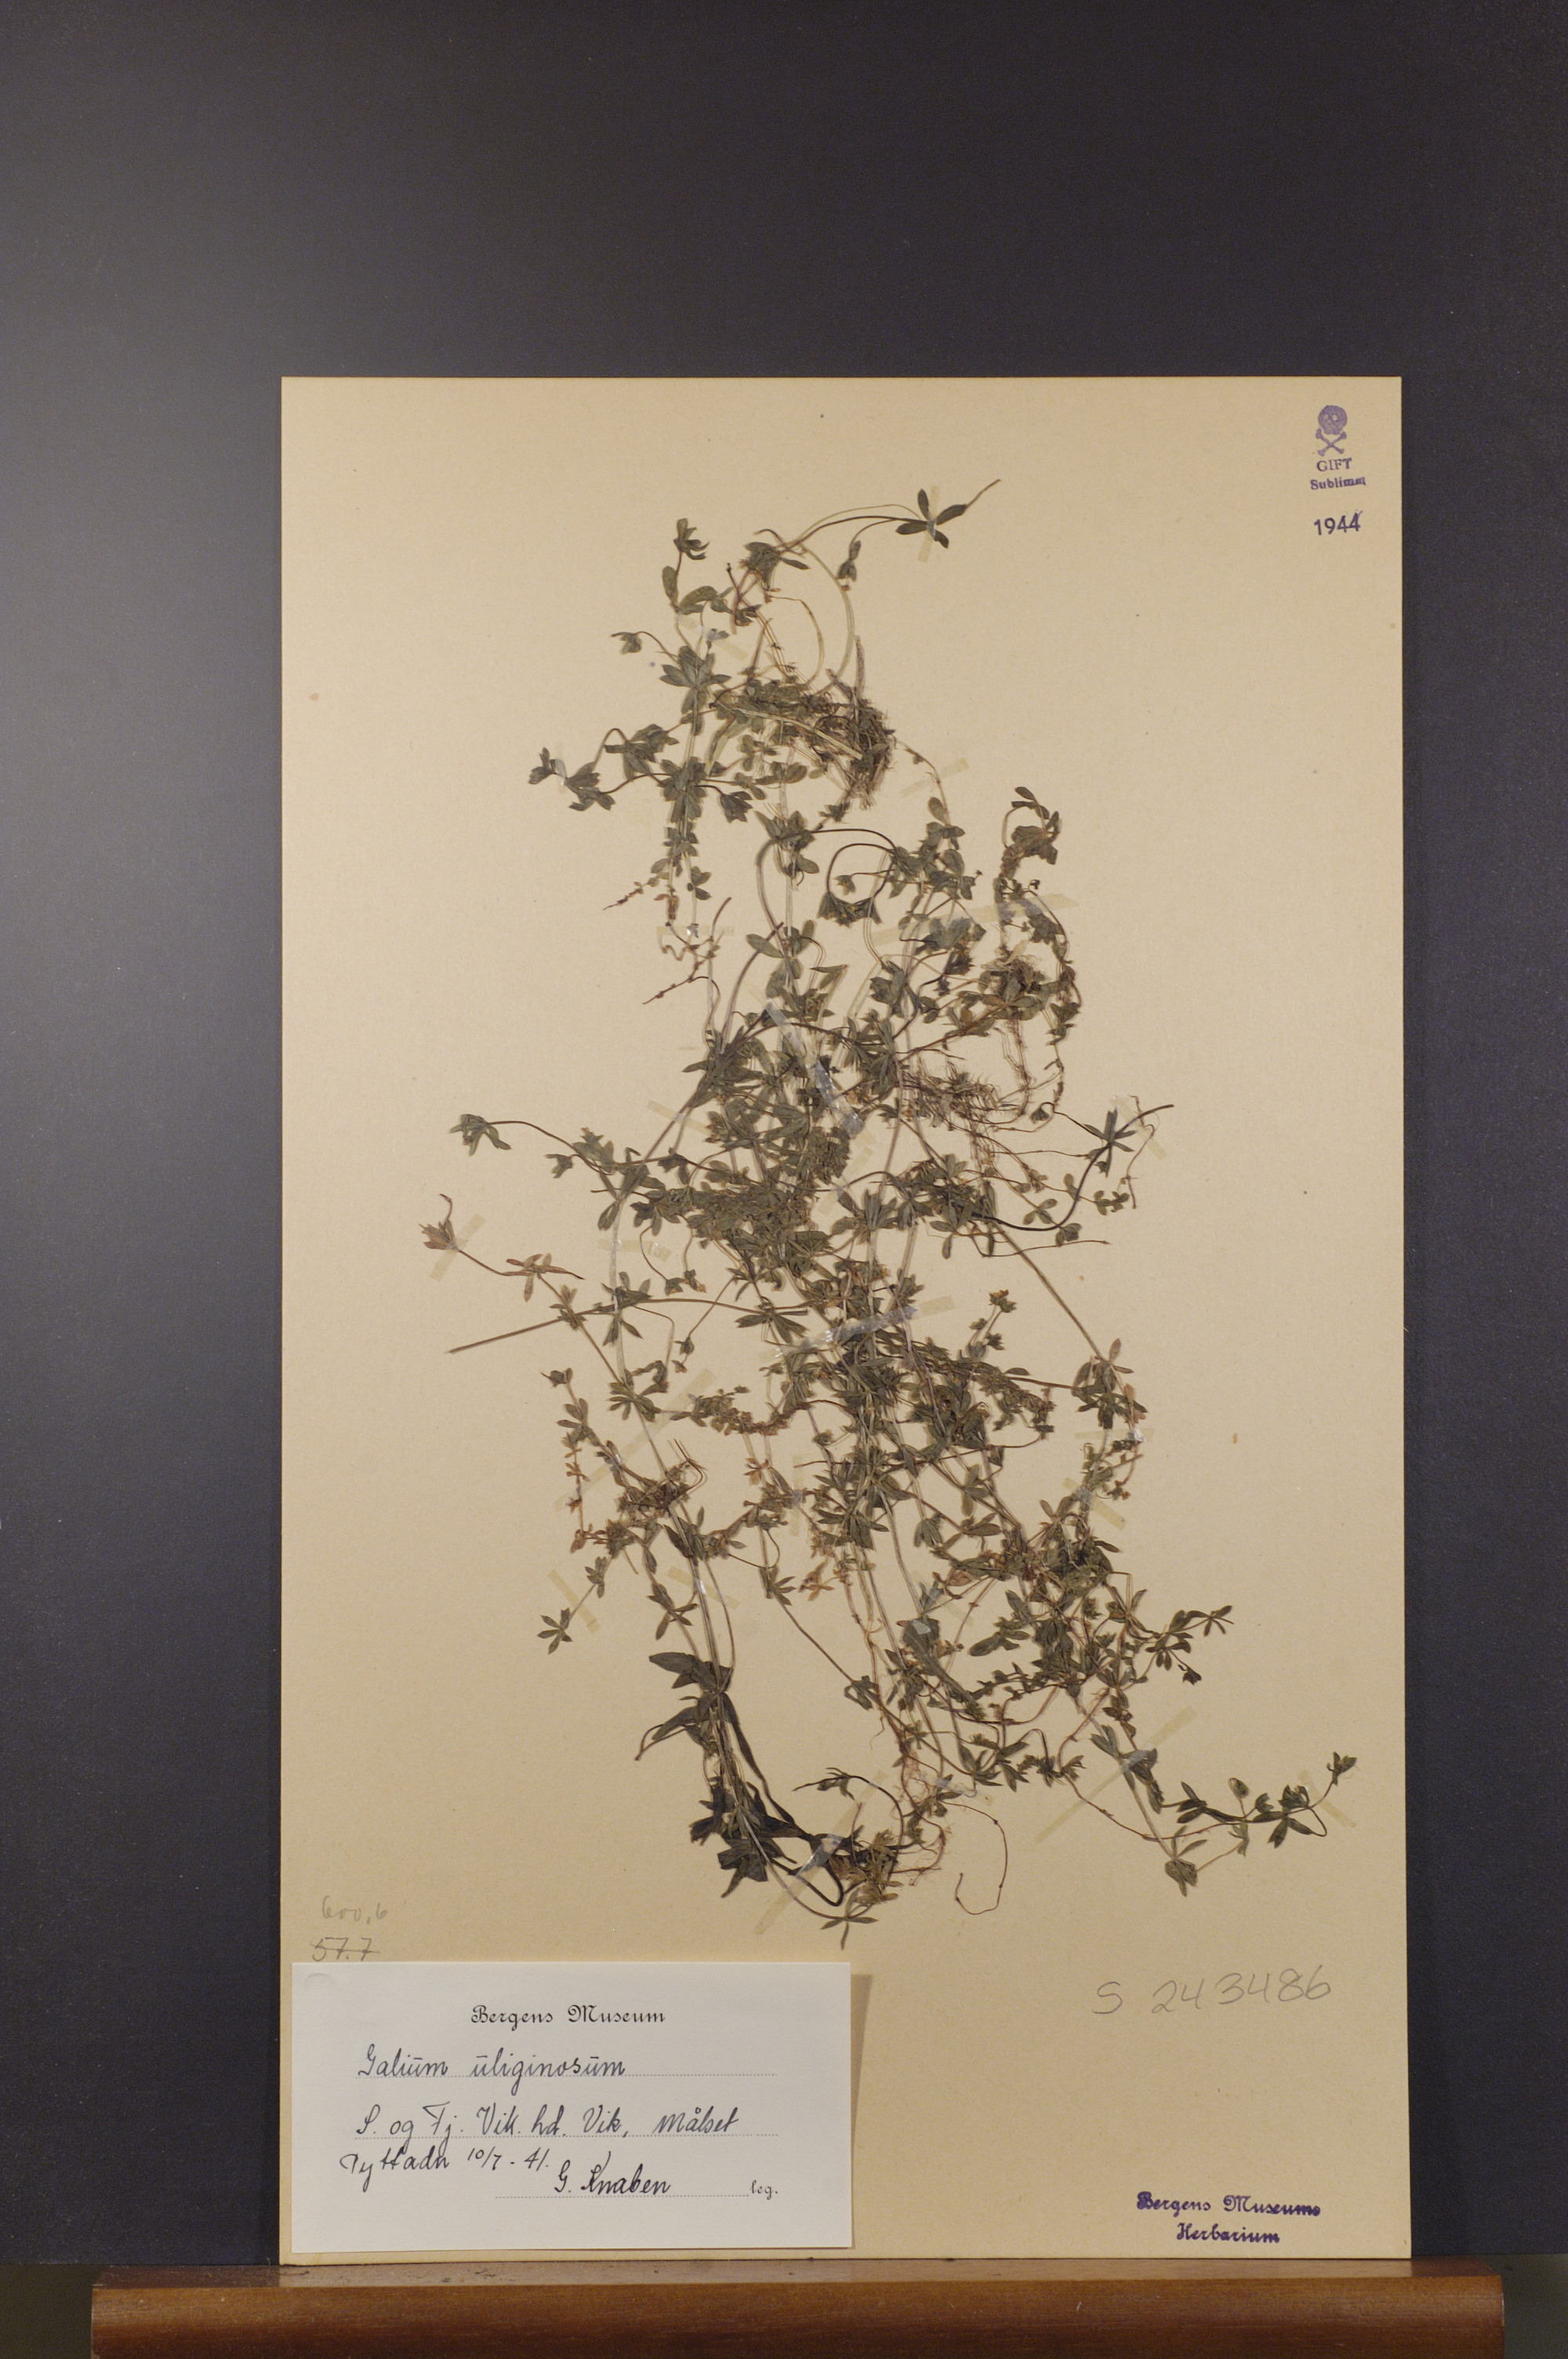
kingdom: Plantae
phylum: Tracheophyta
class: Magnoliopsida
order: Gentianales
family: Rubiaceae
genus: Galium
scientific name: Galium uliginosum
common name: Fen bedstraw
